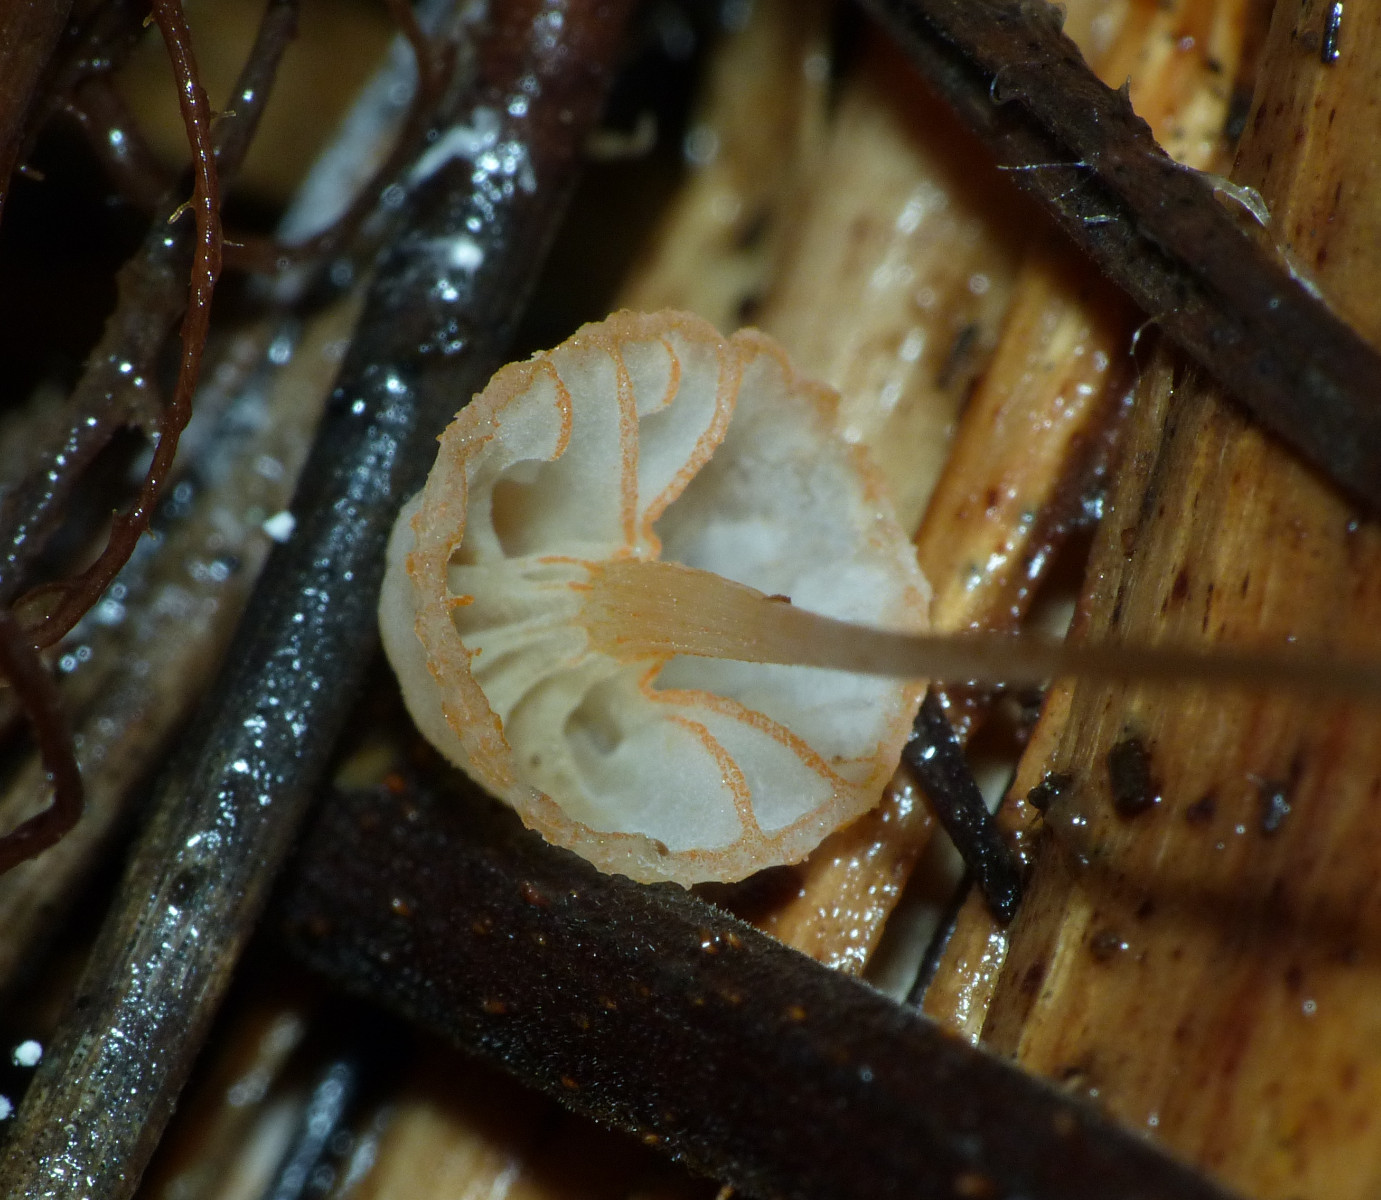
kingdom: Fungi
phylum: Basidiomycota
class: Agaricomycetes
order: Agaricales
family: Mycenaceae
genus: Mycena
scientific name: Mycena pterigena
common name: bregne-huesvamp
